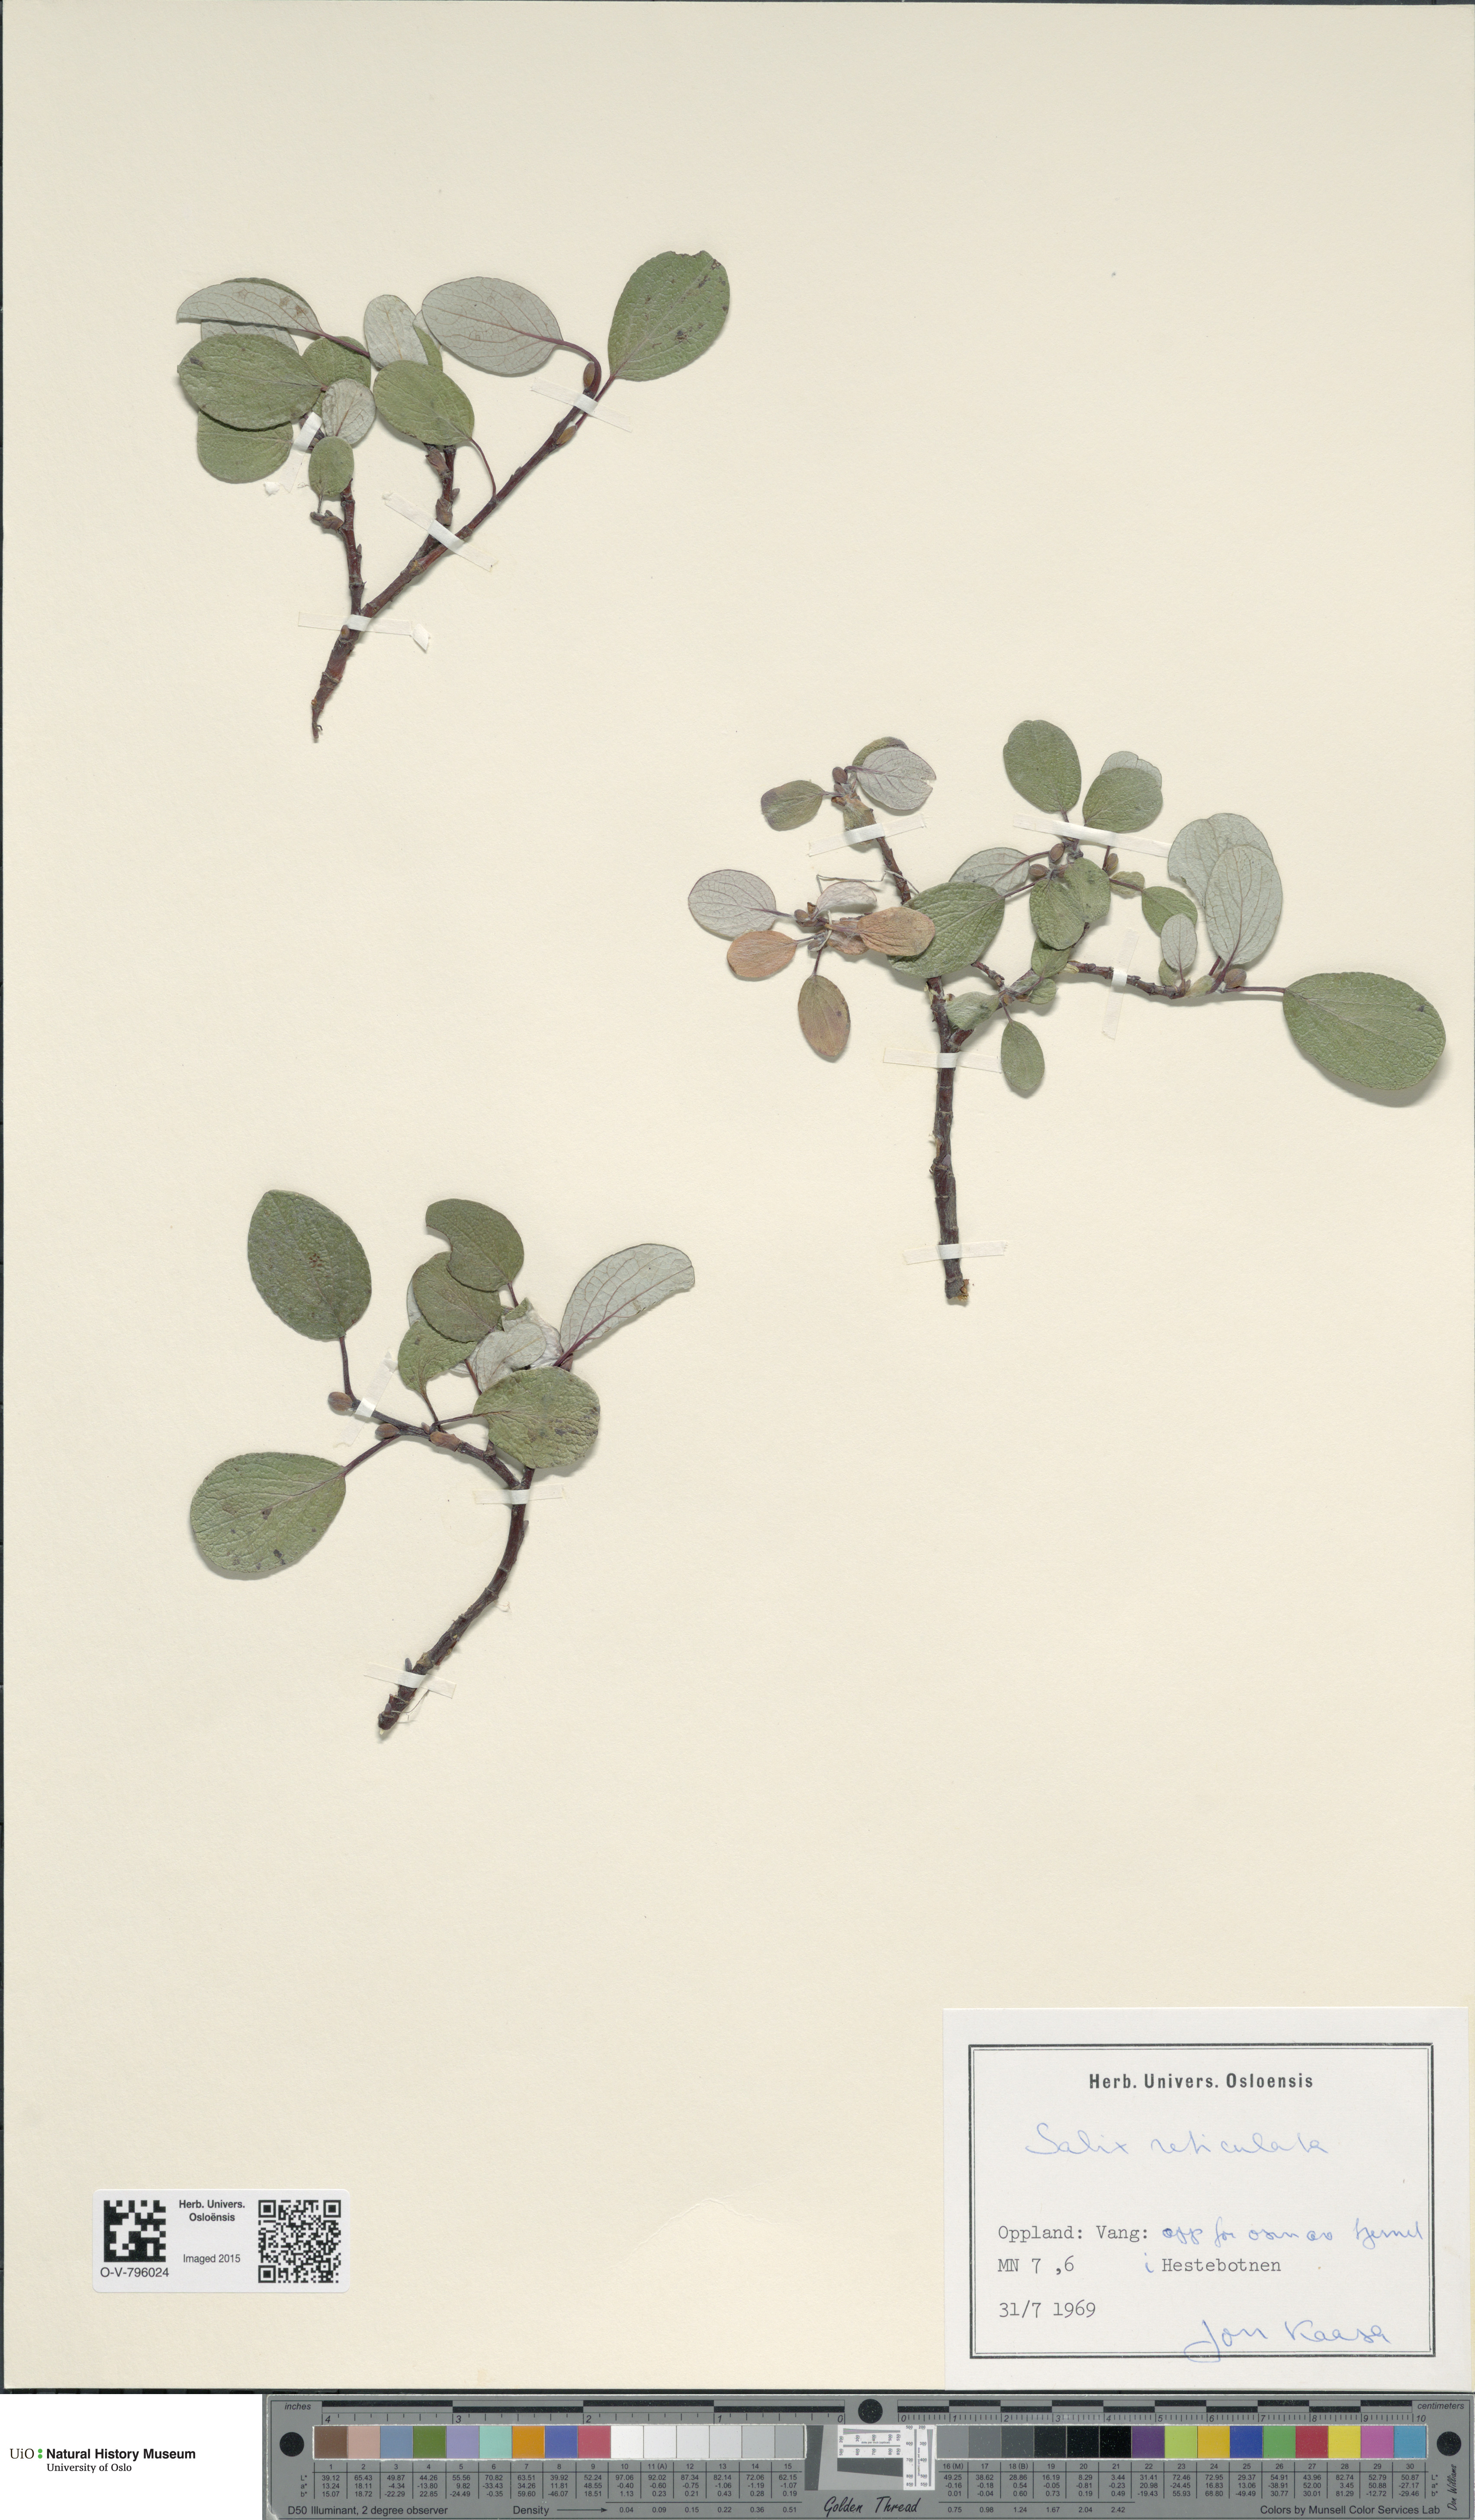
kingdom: Plantae
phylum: Tracheophyta
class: Magnoliopsida
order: Malpighiales
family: Salicaceae
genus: Salix
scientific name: Salix reticulata
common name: Net-leaved willow
